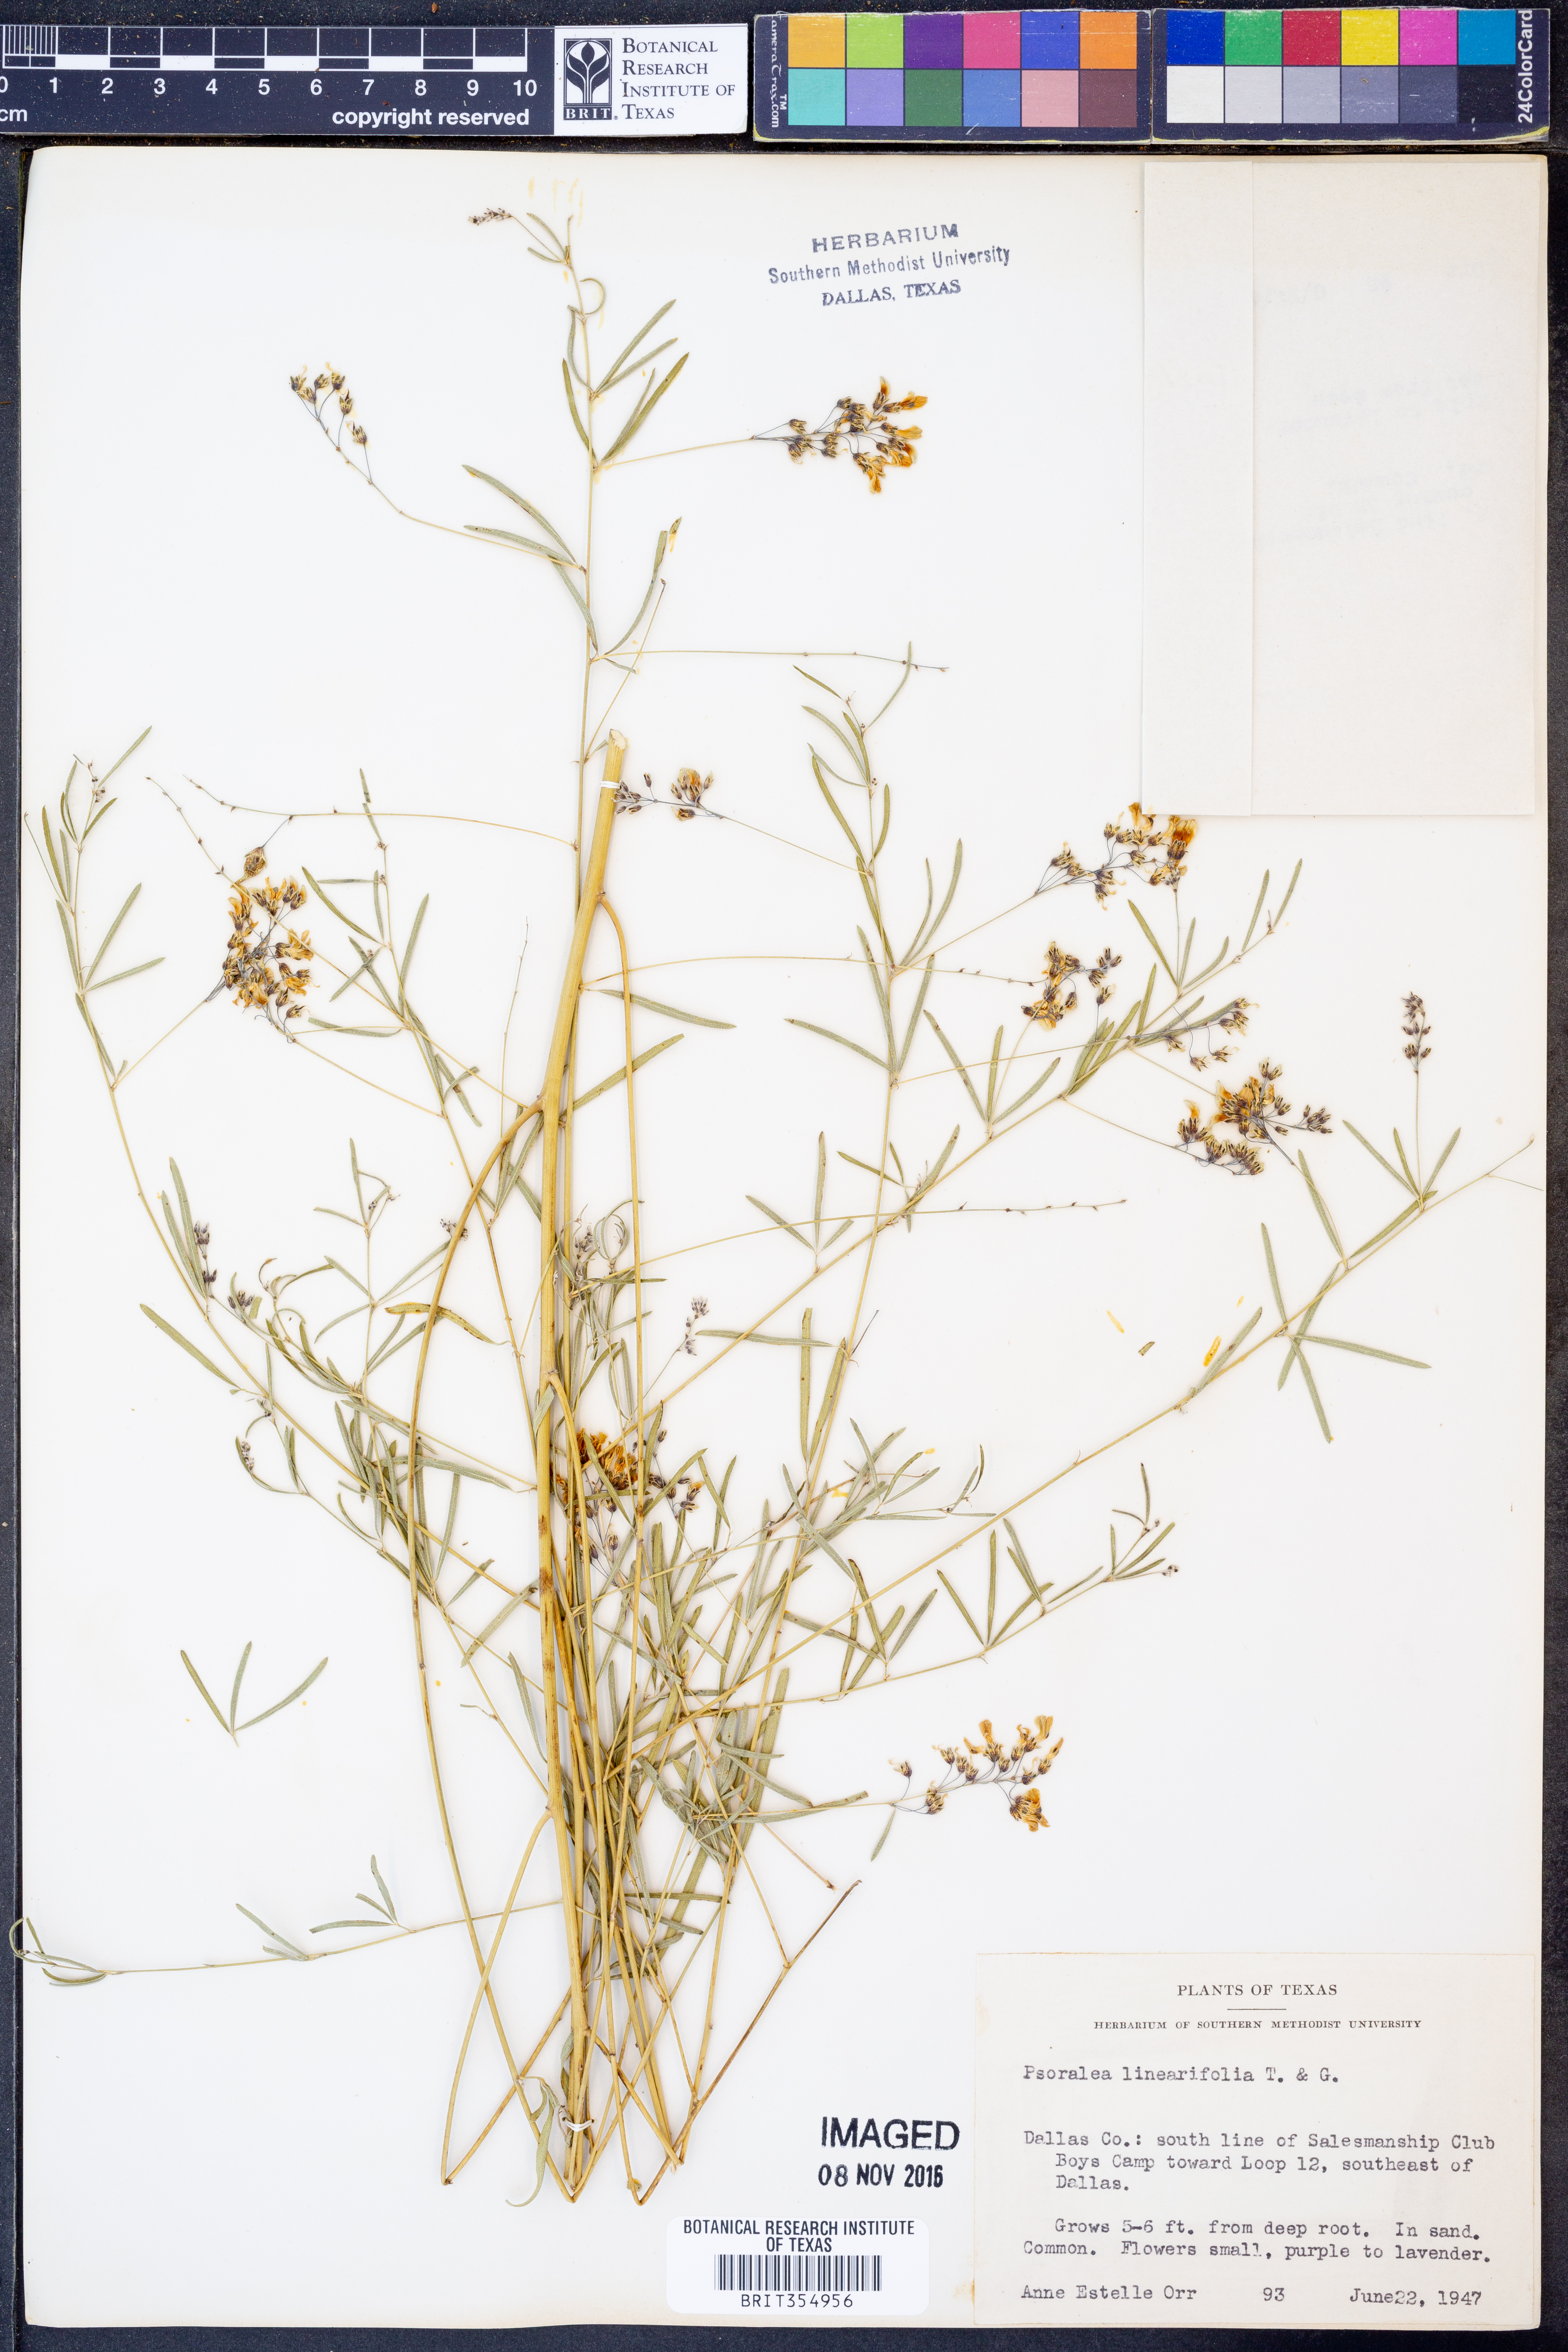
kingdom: Plantae
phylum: Tracheophyta
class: Magnoliopsida
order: Fabales
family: Fabaceae
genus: Pediomelum
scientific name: Pediomelum linearifolium
